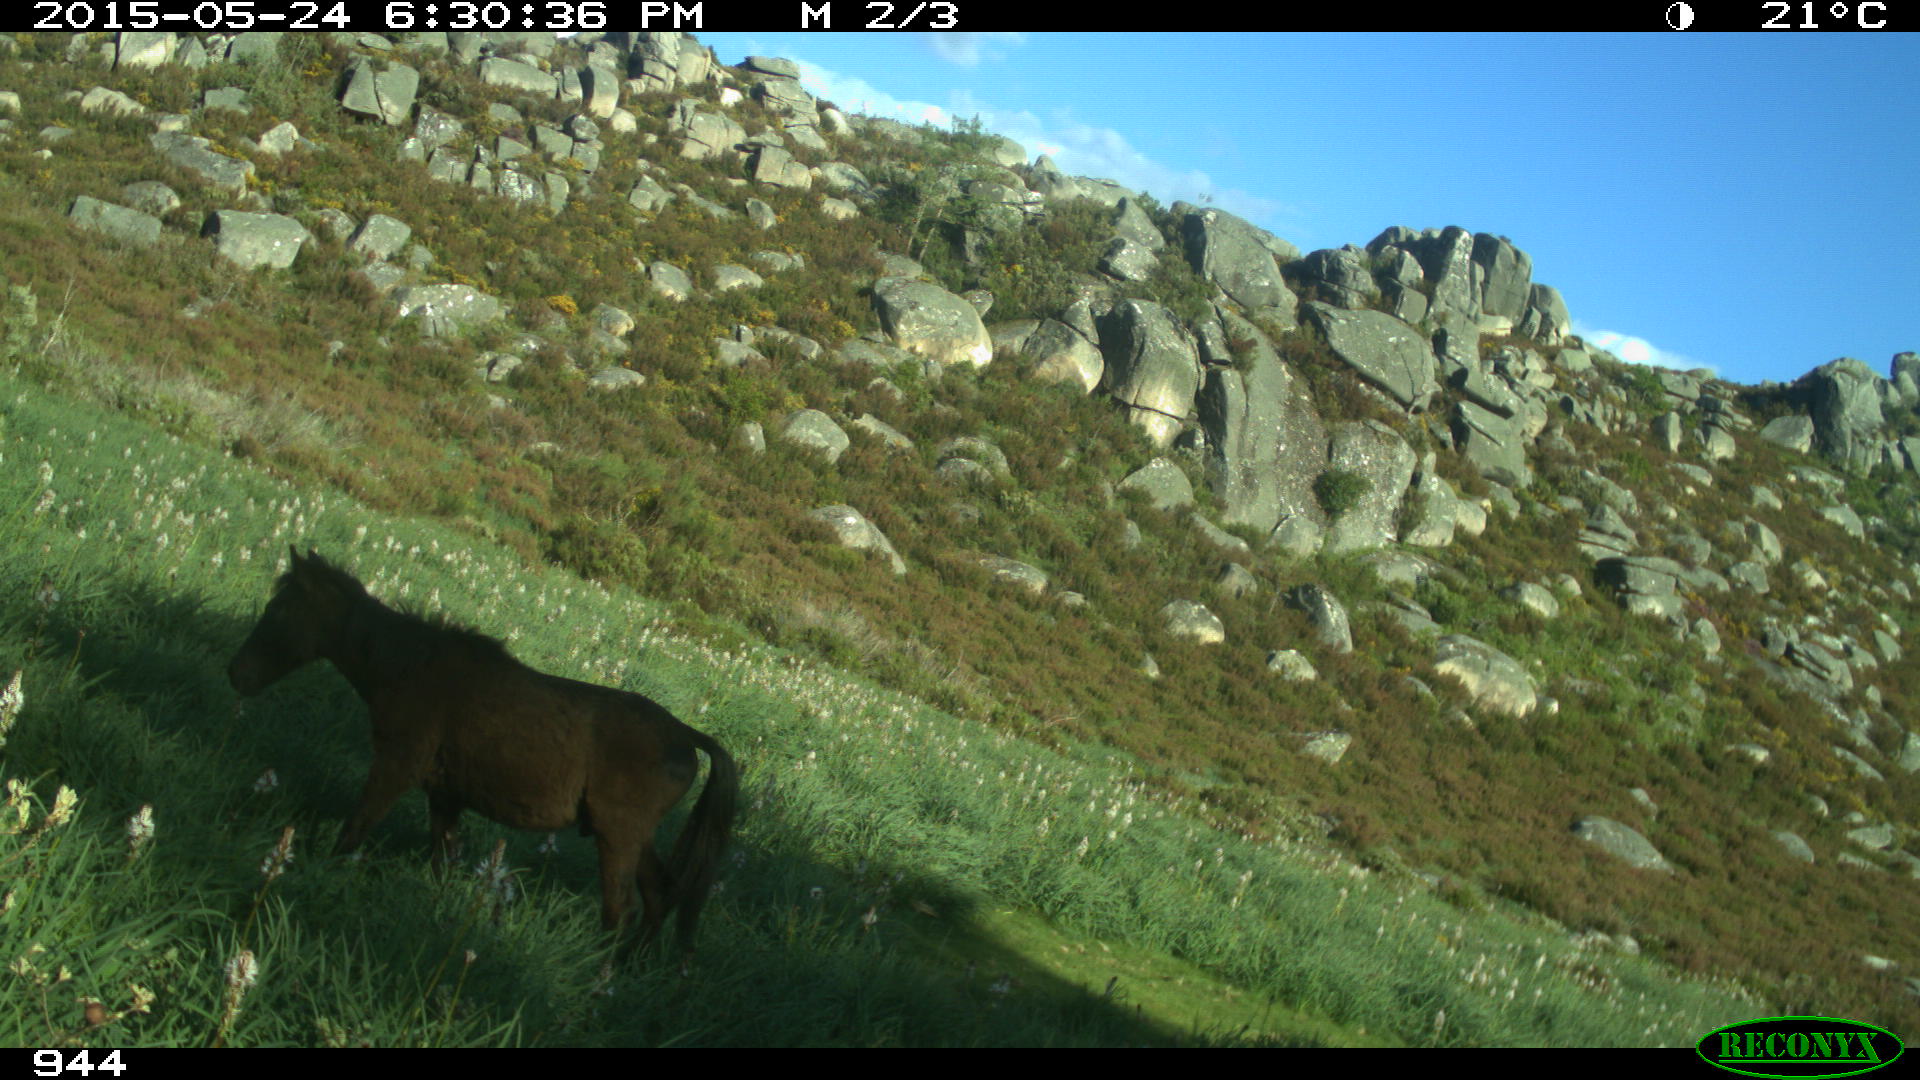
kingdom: Animalia
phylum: Chordata
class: Mammalia
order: Perissodactyla
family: Equidae
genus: Equus
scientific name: Equus caballus
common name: Horse
